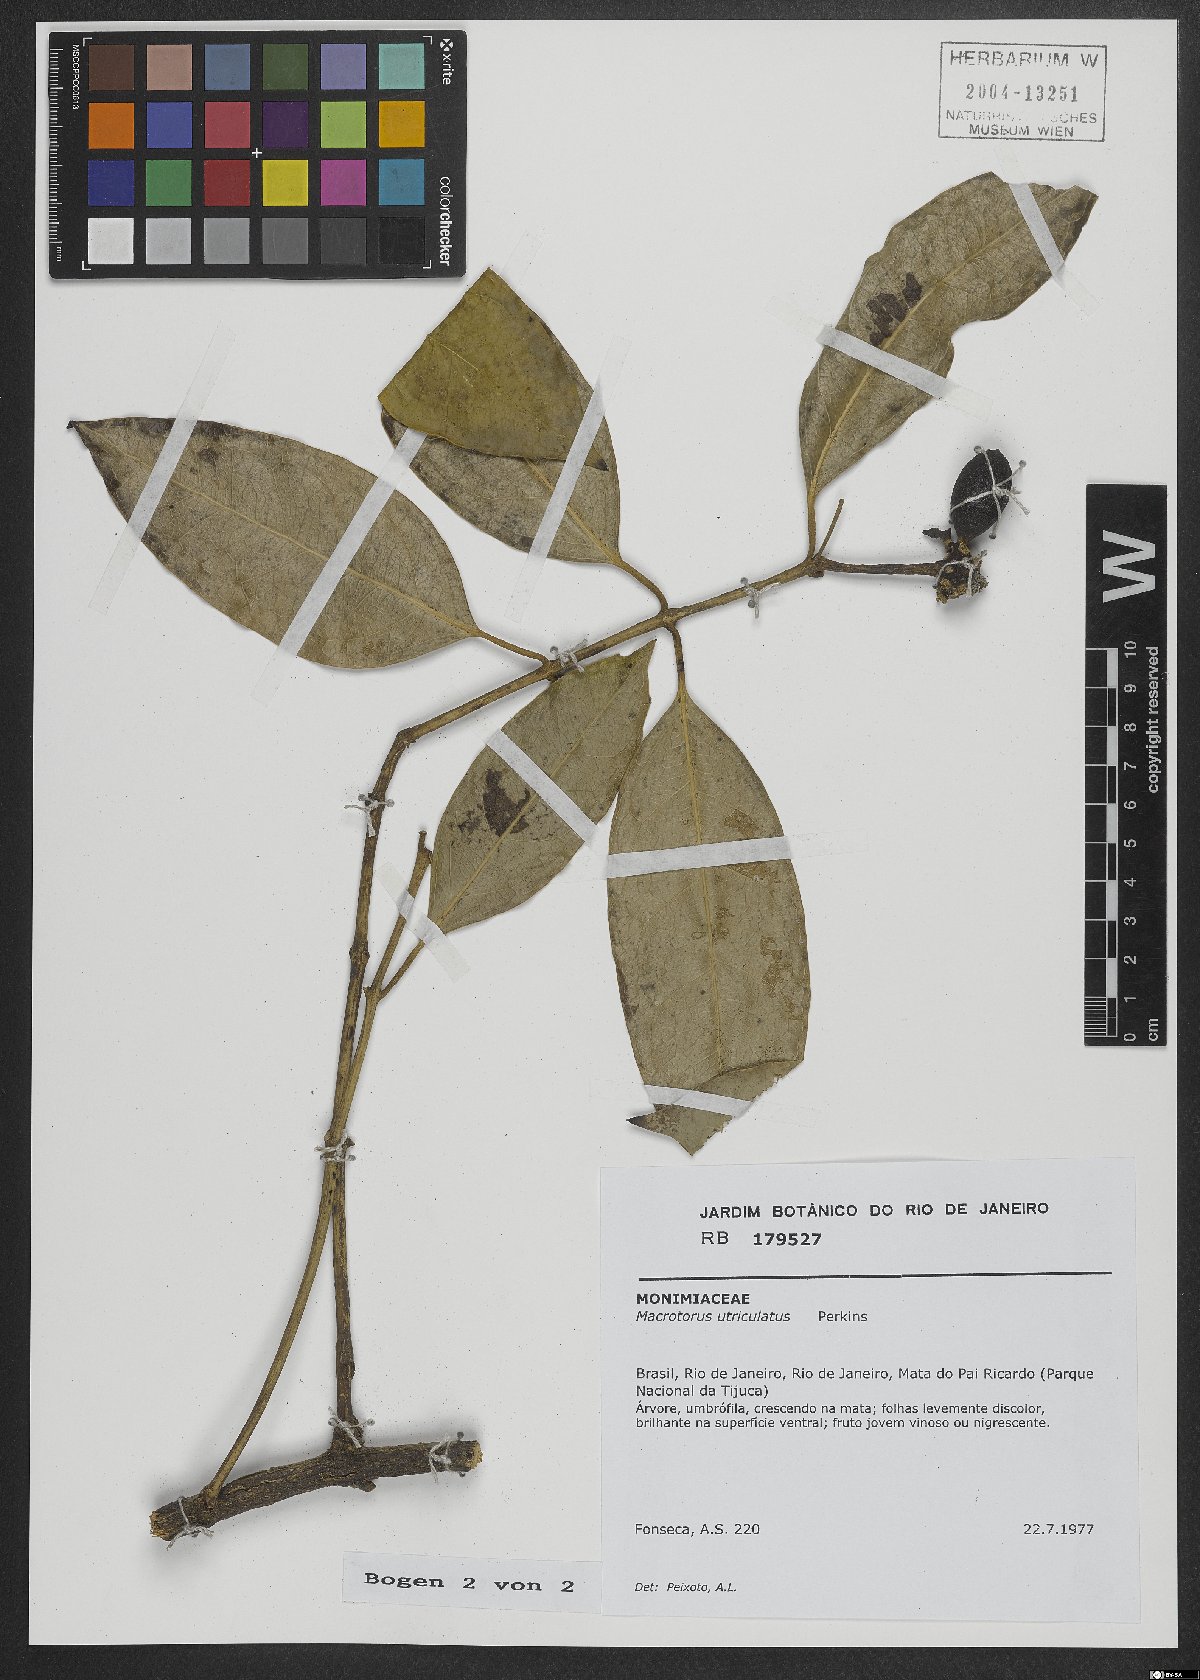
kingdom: Plantae
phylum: Tracheophyta
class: Magnoliopsida
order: Laurales
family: Monimiaceae
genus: Macrotorus
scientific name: Macrotorus utriculatus
